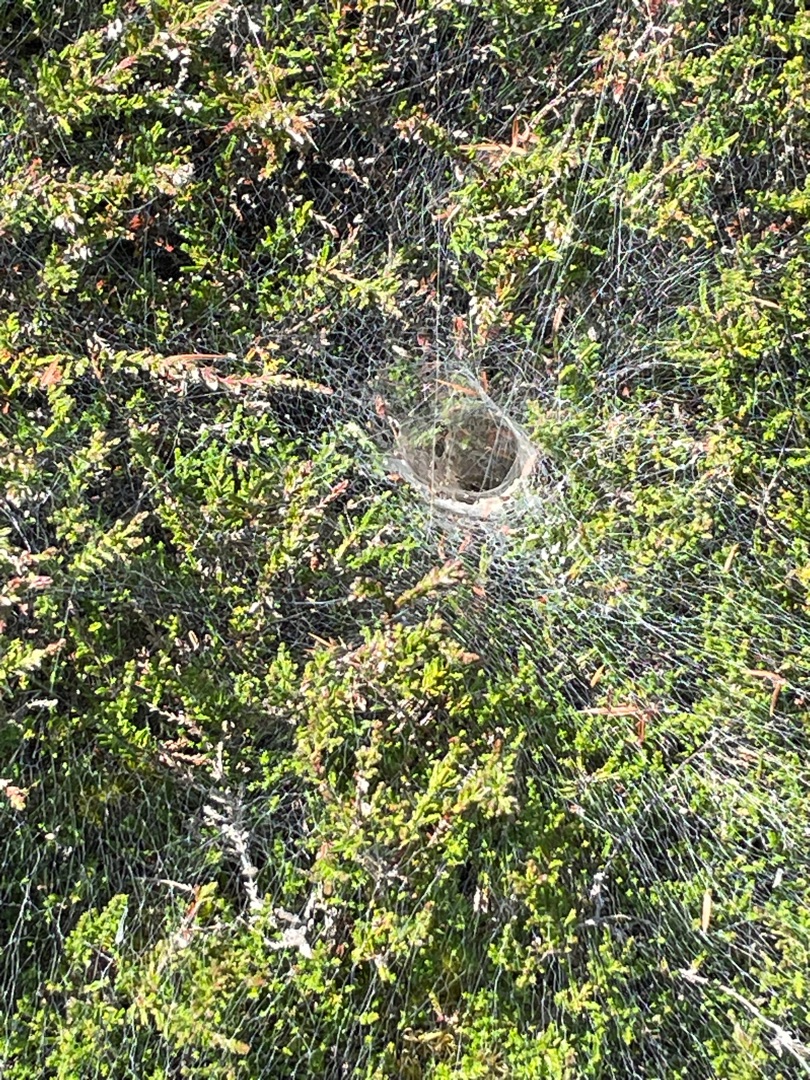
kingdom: Animalia
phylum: Arthropoda
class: Arachnida
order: Araneae
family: Agelenidae
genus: Agelena
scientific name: Agelena labyrinthica
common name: Labyrintedderkop
